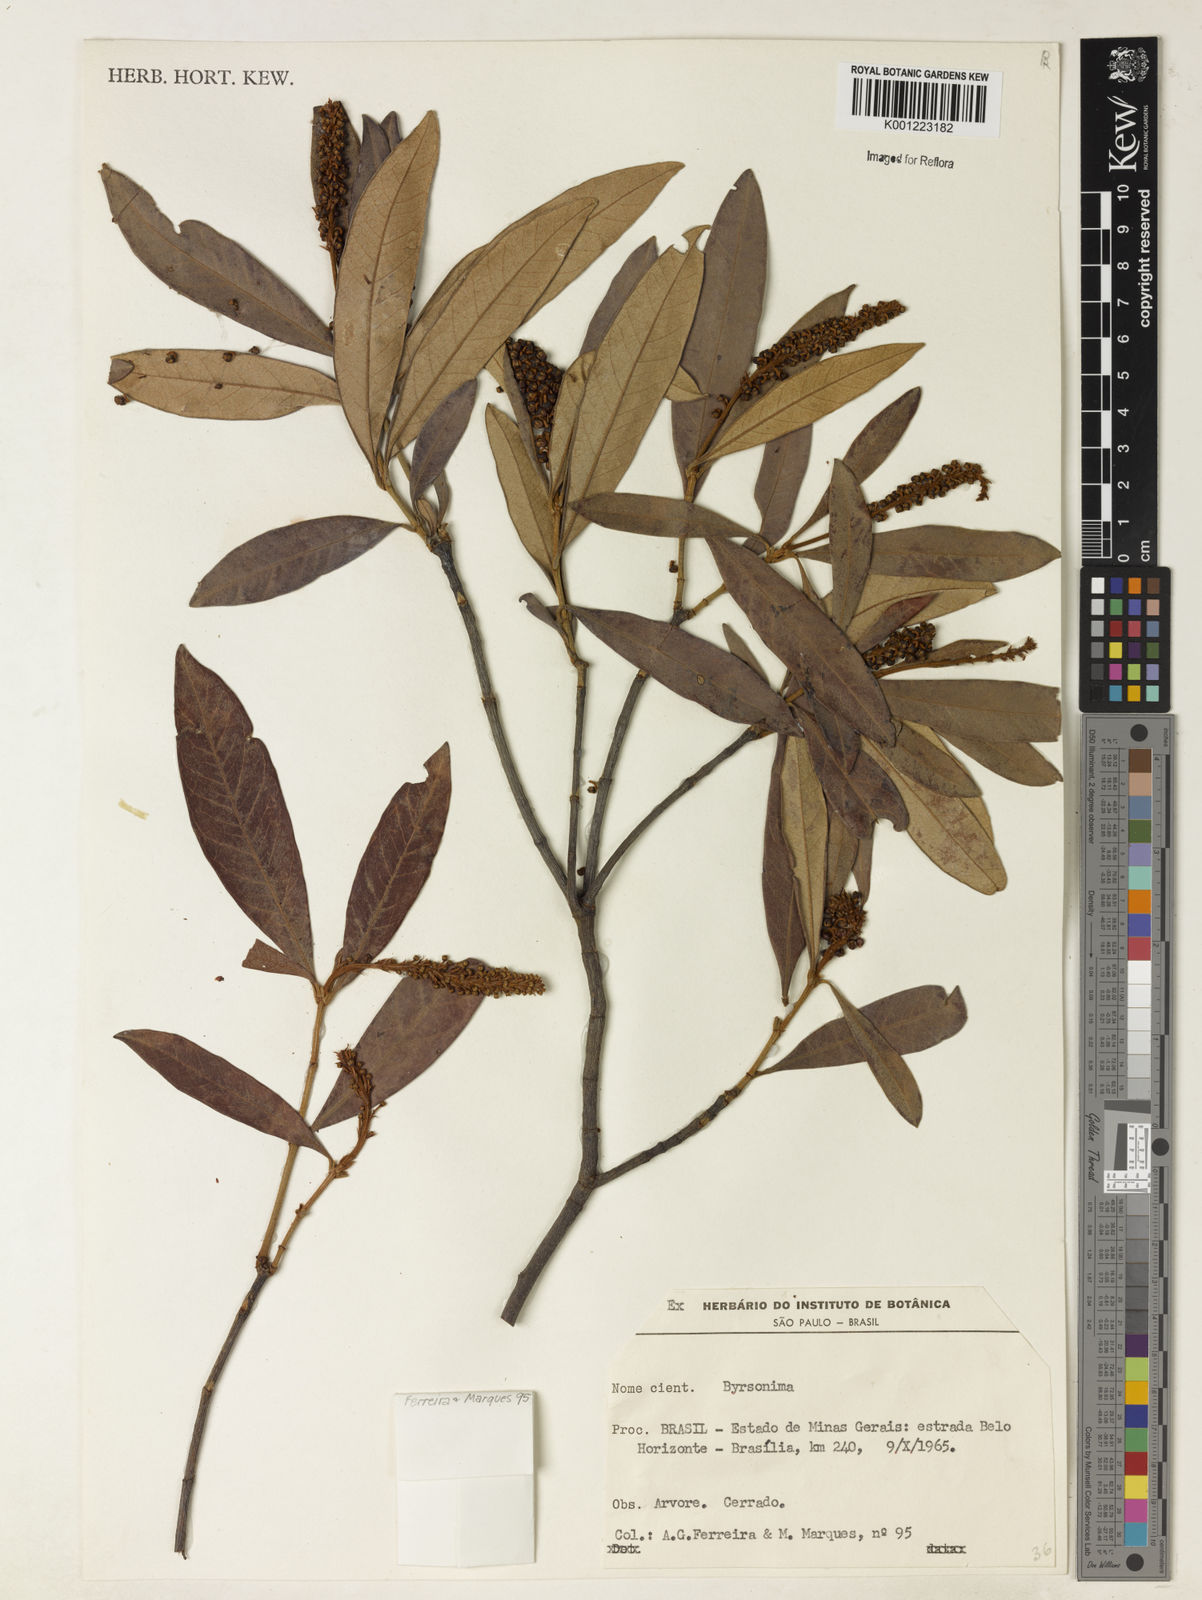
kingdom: Plantae
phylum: Tracheophyta
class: Magnoliopsida
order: Malpighiales
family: Malpighiaceae
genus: Byrsonima
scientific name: Byrsonima
